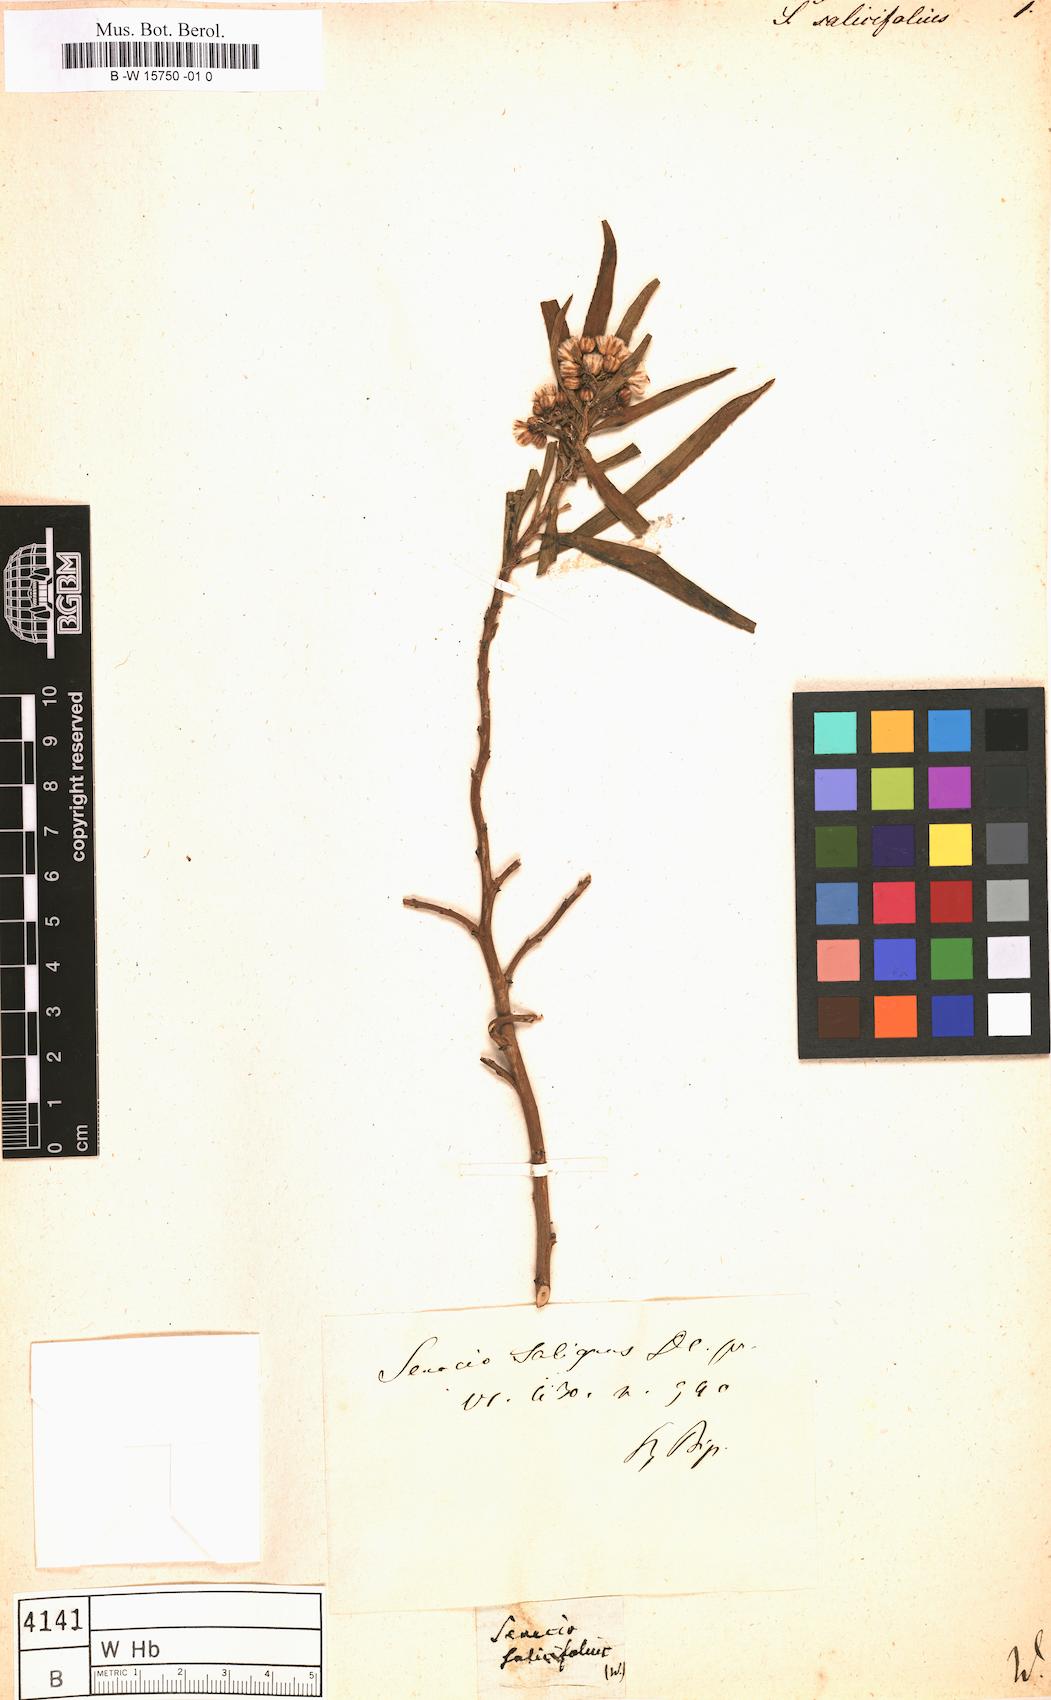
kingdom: Plantae
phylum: Tracheophyta
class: Magnoliopsida
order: Asterales
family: Asteraceae
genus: Senecio
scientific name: Senecio ovatus
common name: Wood ragwort
